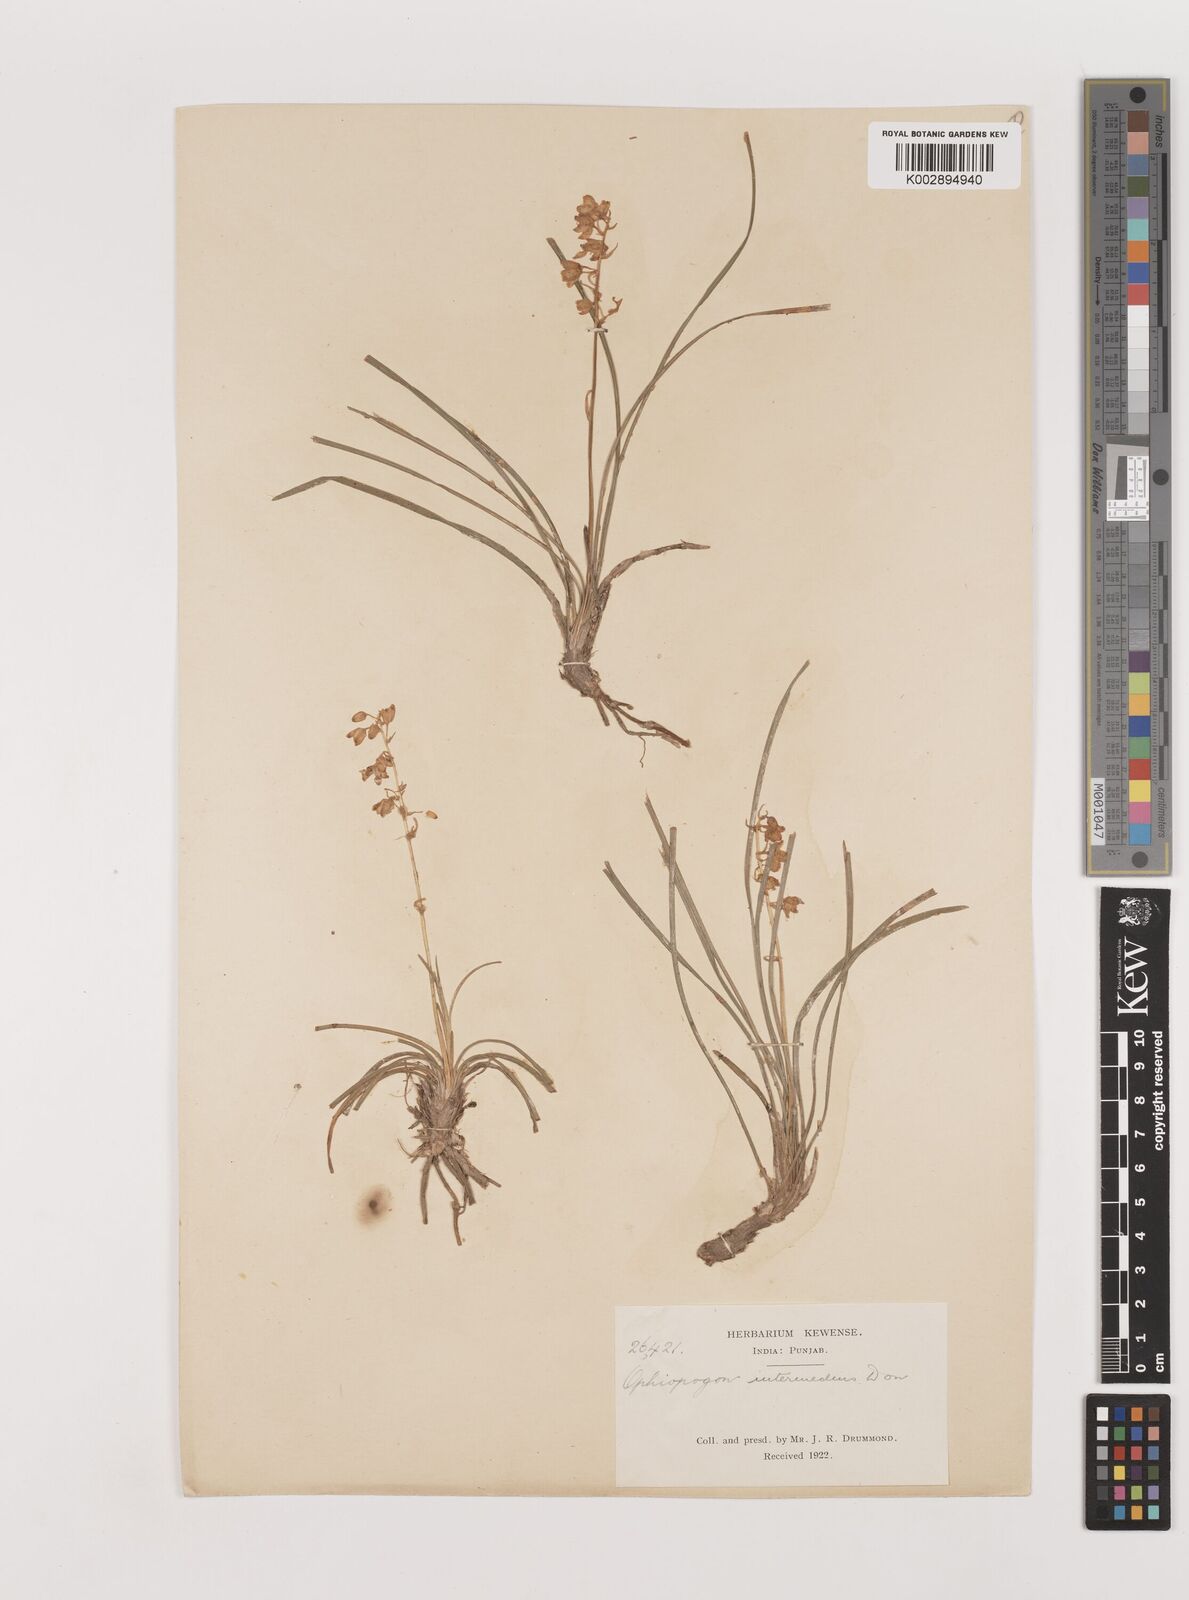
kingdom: Plantae
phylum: Tracheophyta
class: Liliopsida
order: Asparagales
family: Asparagaceae
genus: Ophiopogon
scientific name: Ophiopogon intermedius
